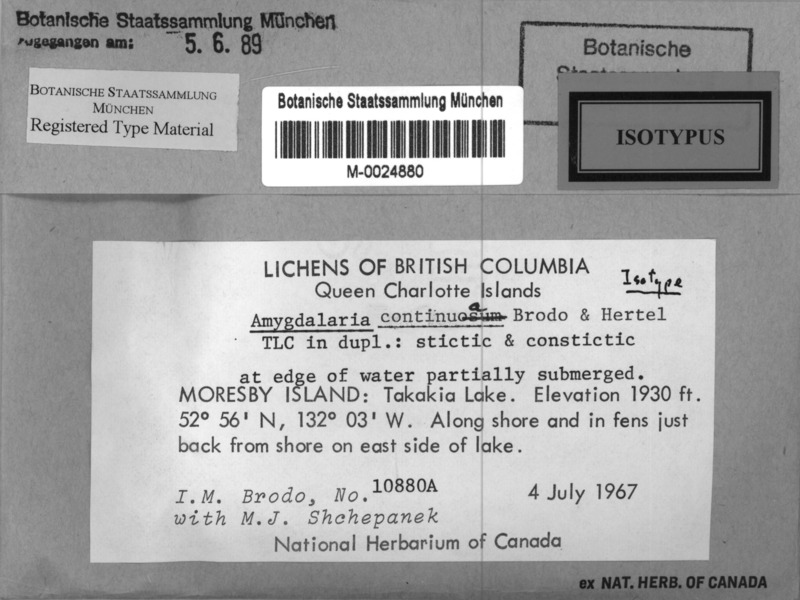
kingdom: Fungi
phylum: Ascomycota
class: Lecanoromycetes
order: Lecideales
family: Lecideaceae
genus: Amygdalaria
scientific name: Amygdalaria continua
